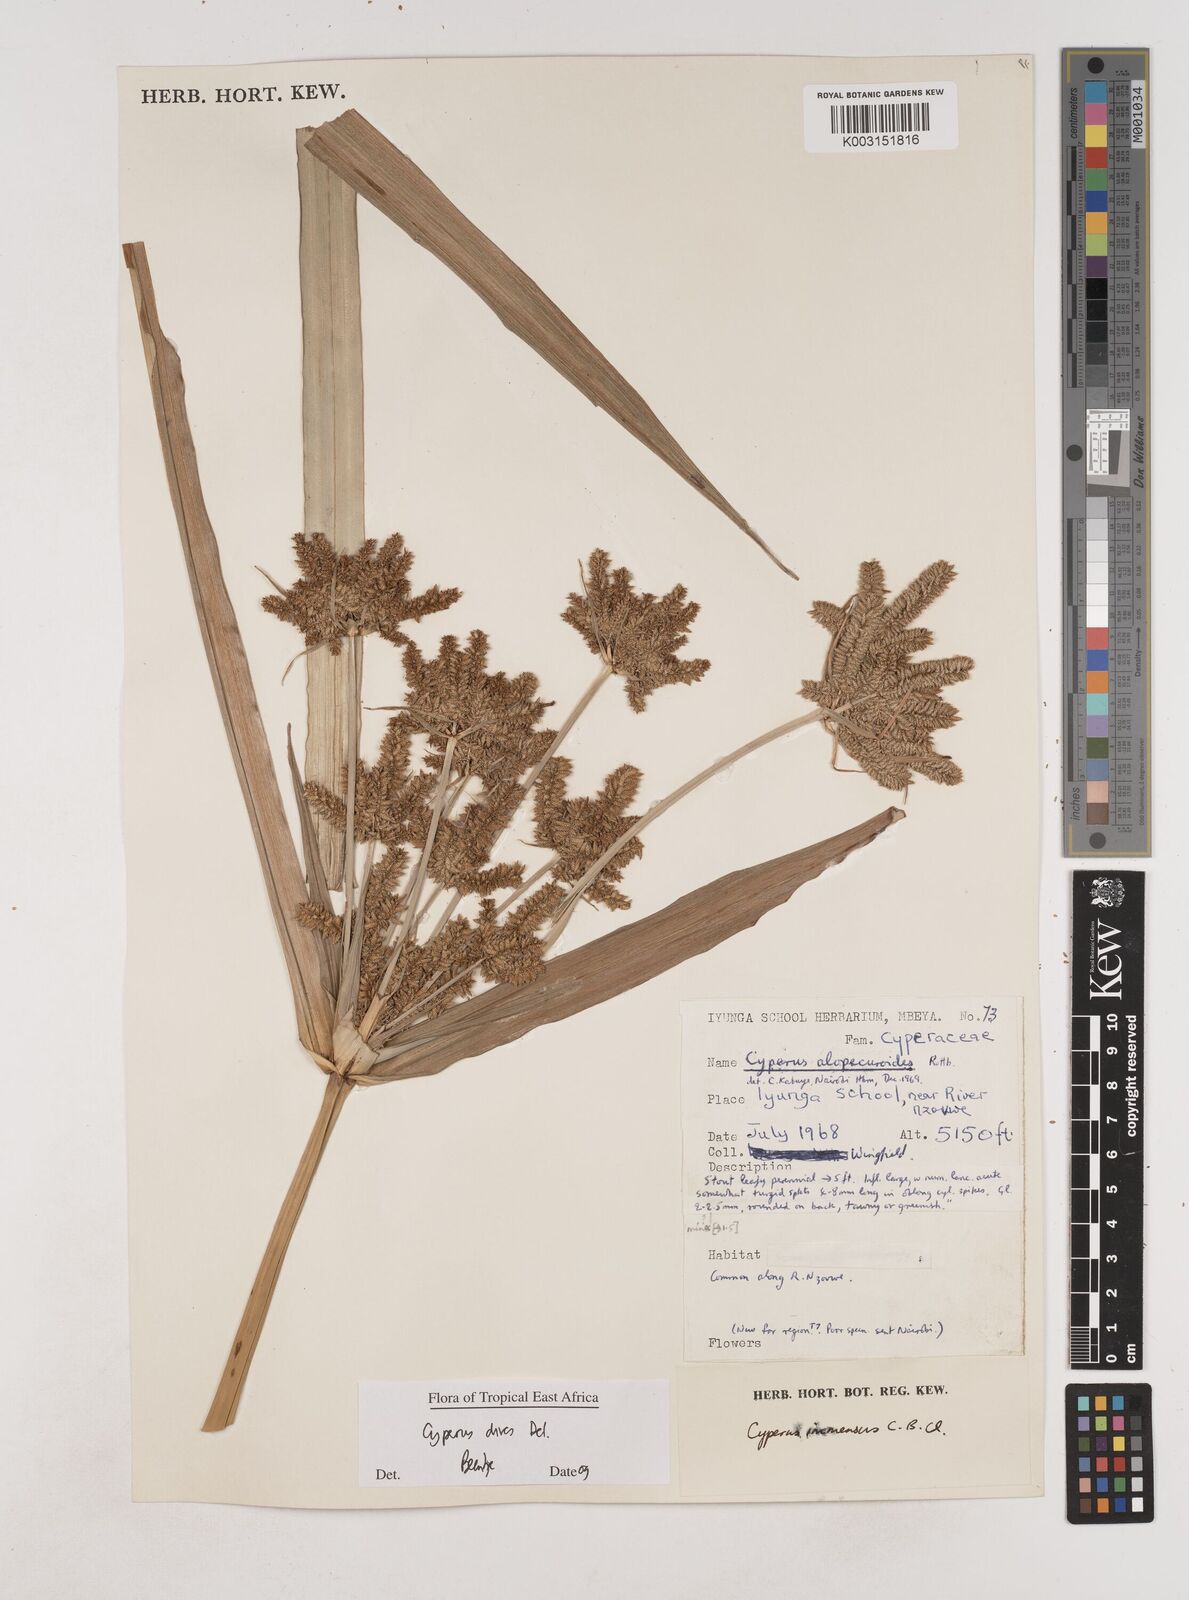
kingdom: Plantae
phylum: Tracheophyta
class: Liliopsida
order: Poales
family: Cyperaceae
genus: Cyperus
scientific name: Cyperus dives
